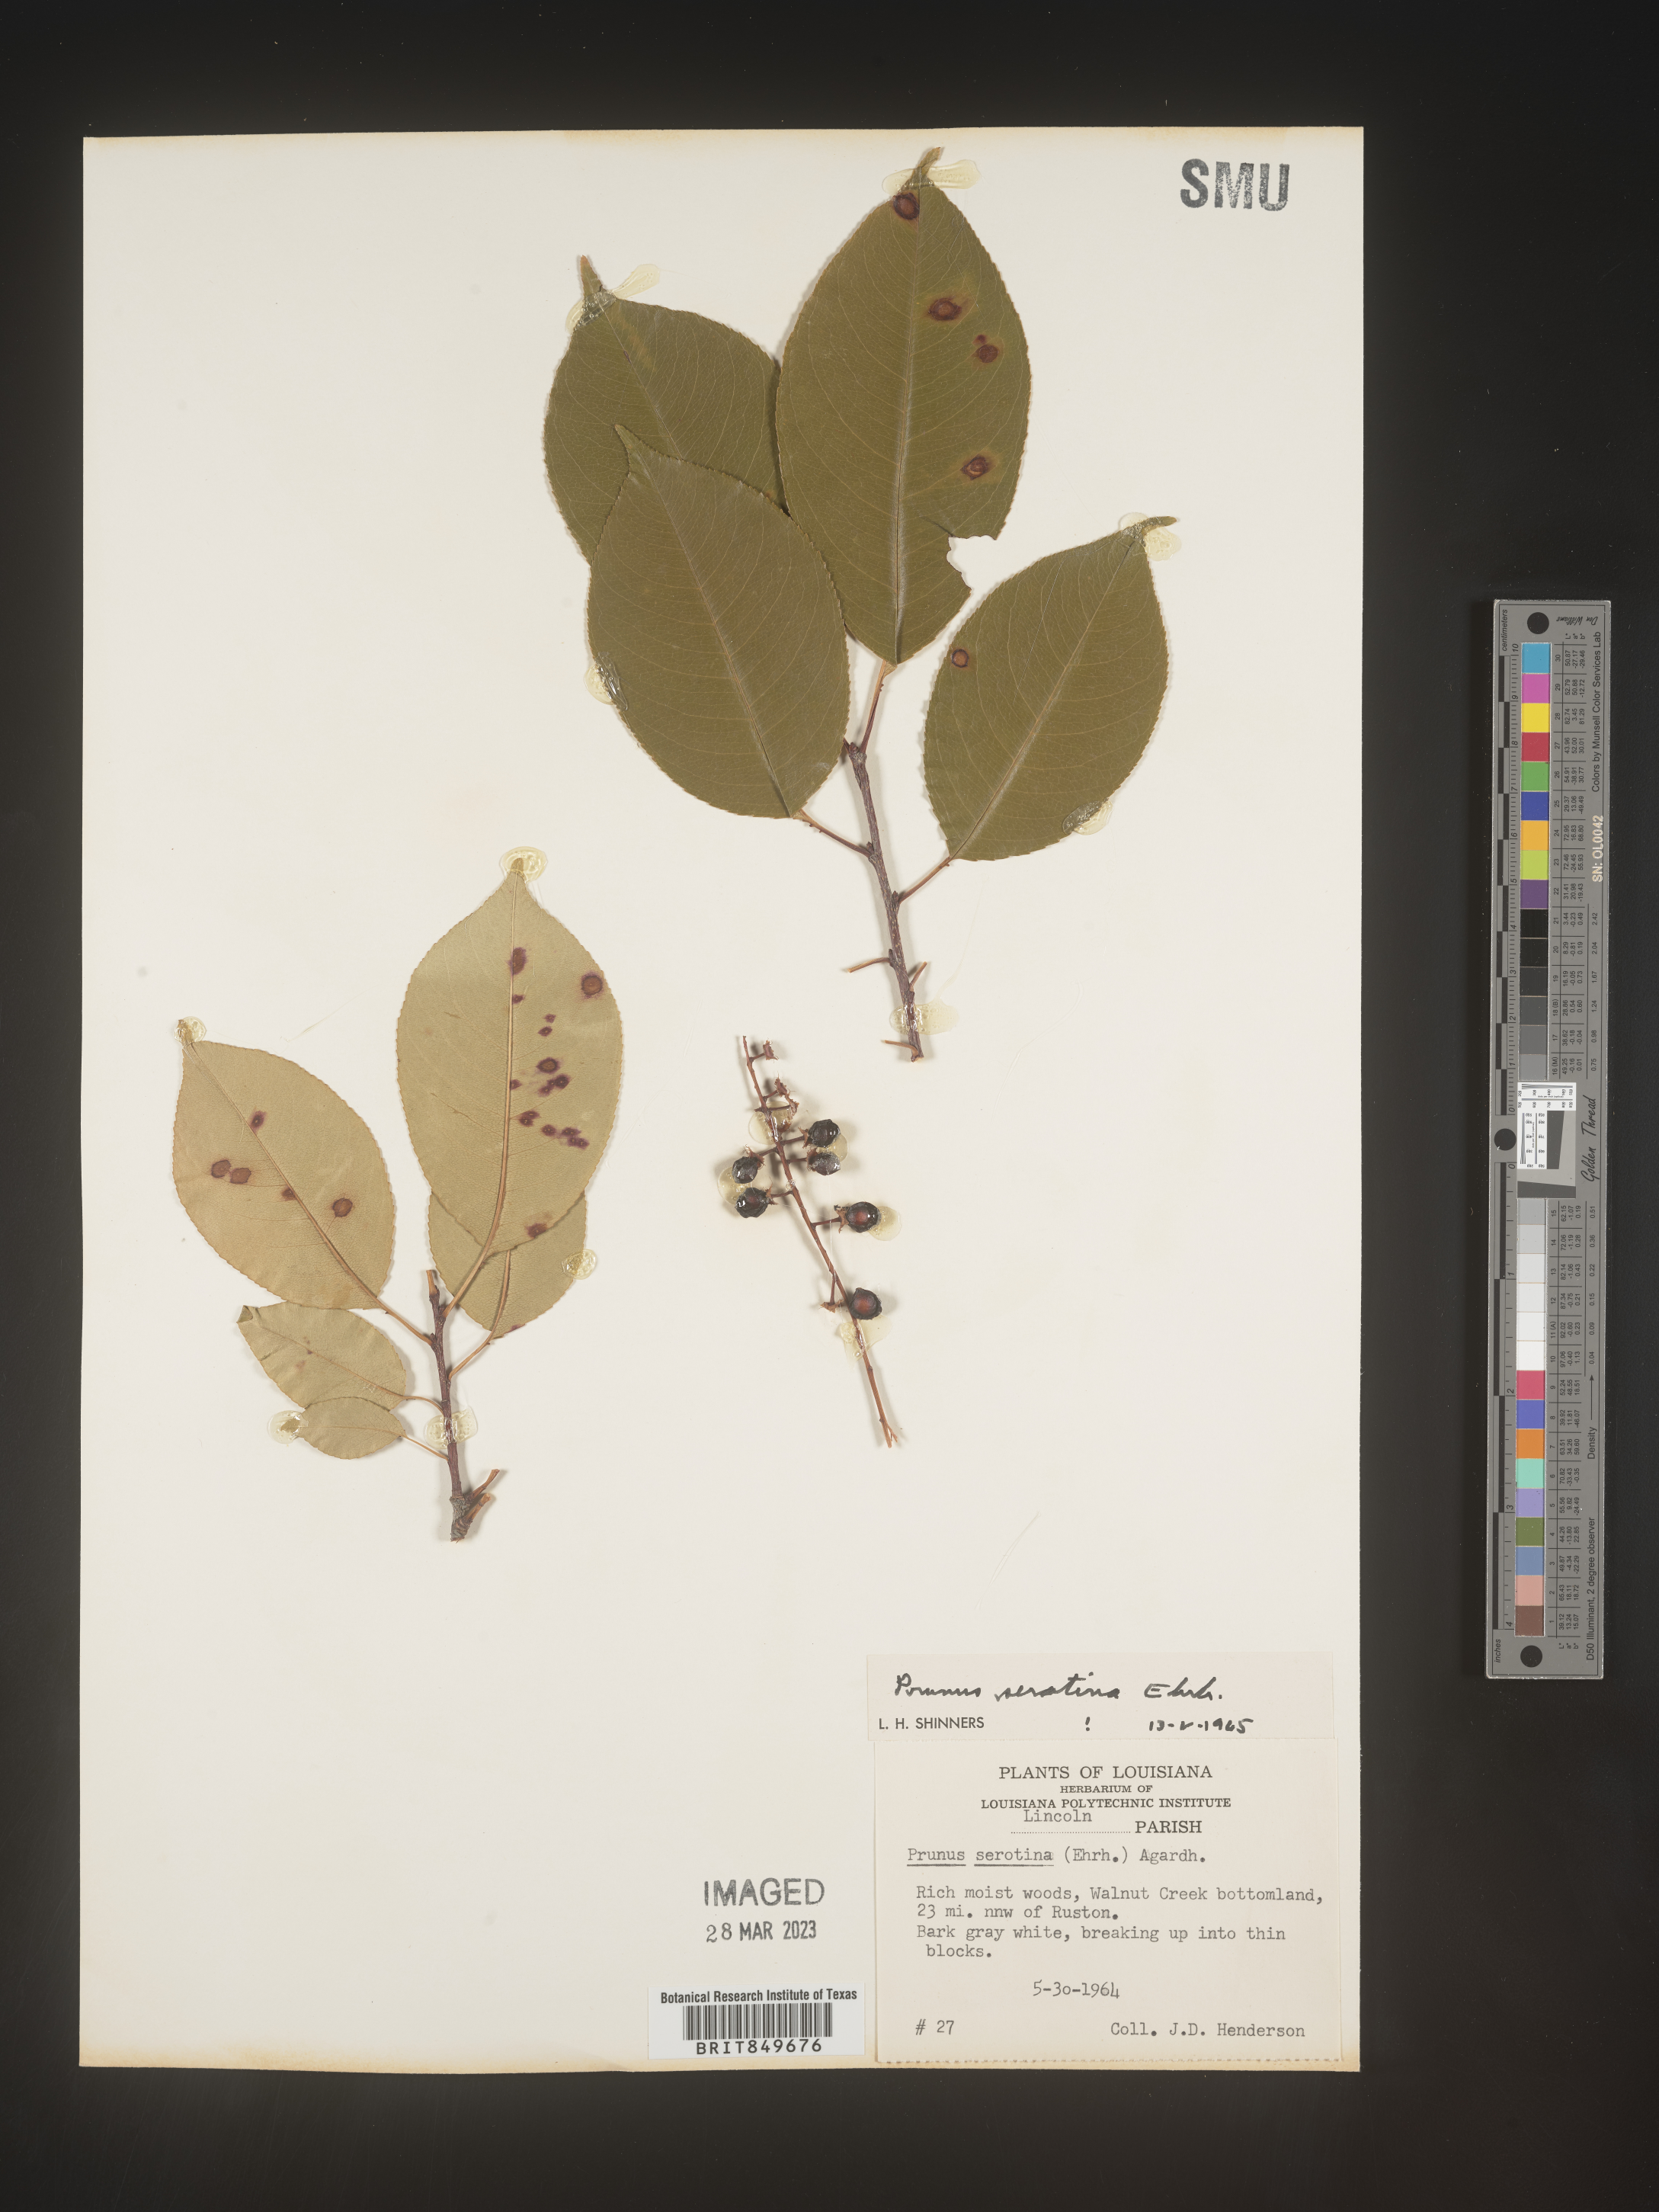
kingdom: Plantae
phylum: Tracheophyta
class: Magnoliopsida
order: Rosales
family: Rosaceae
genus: Prunus
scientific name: Prunus serotina
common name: Black cherry
